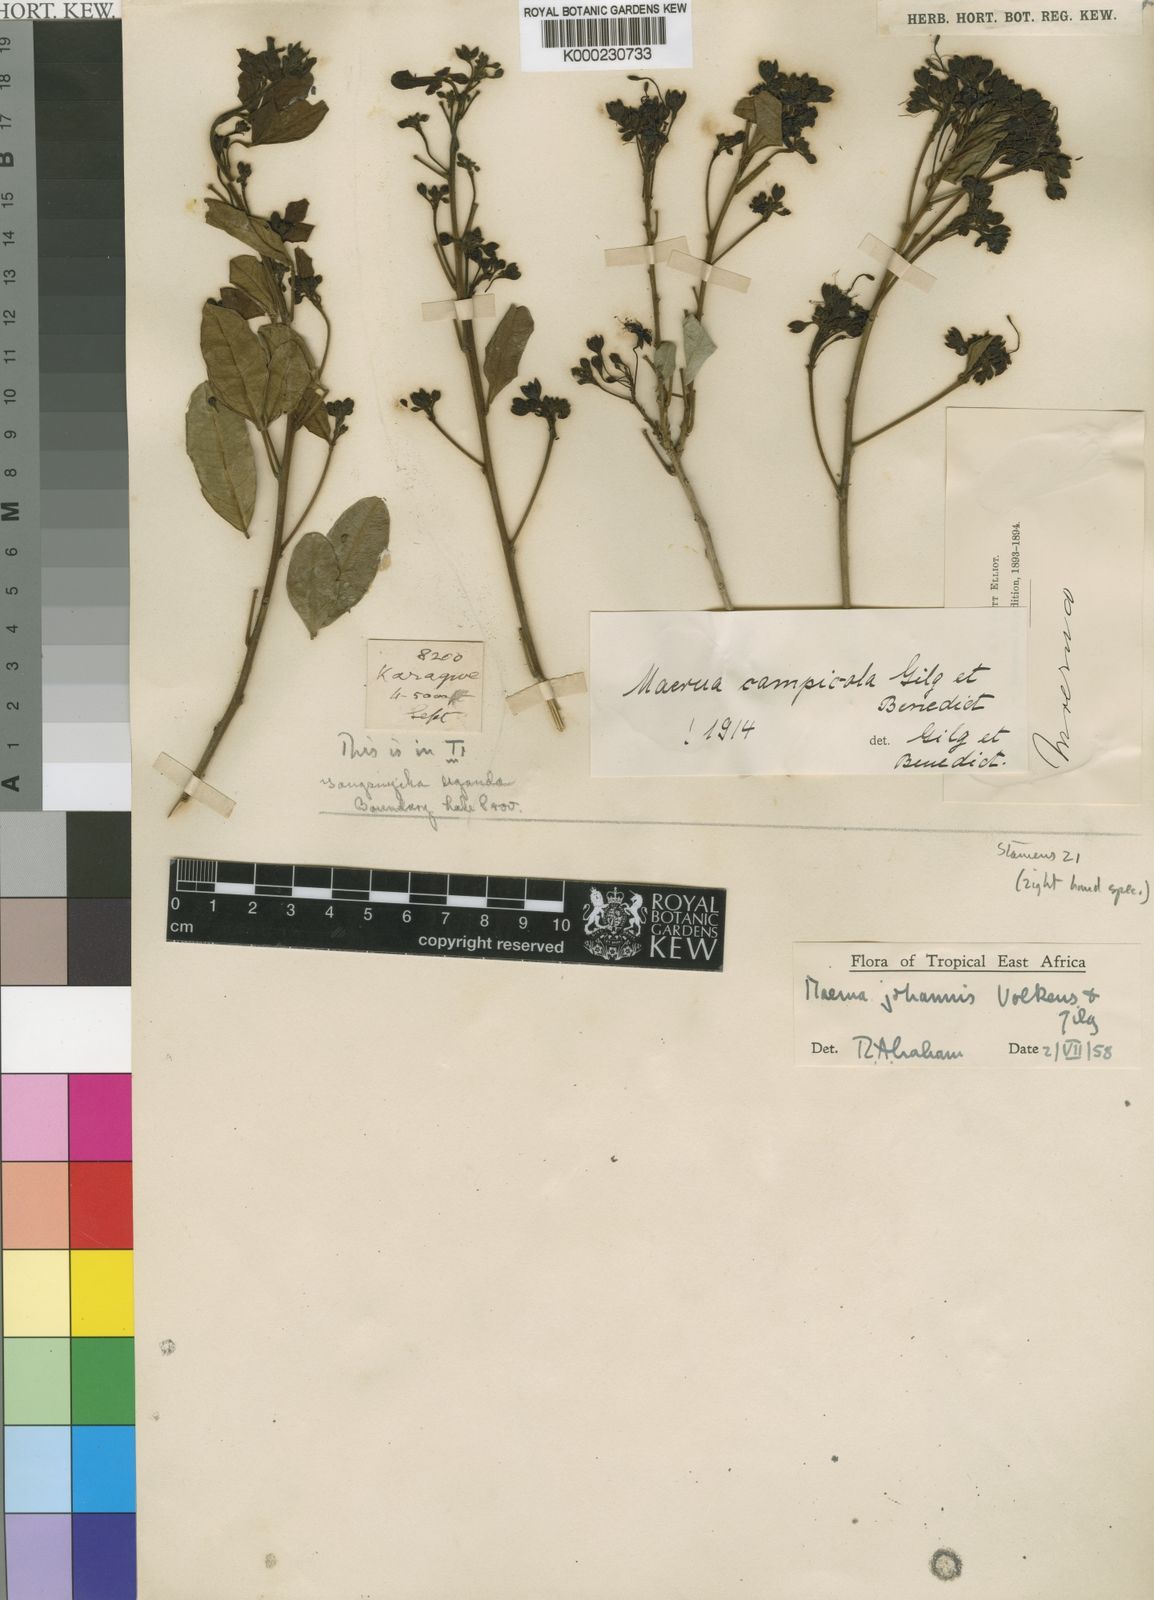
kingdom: Plantae
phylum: Tracheophyta
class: Magnoliopsida
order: Brassicales
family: Capparaceae
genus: Maerua
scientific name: Maerua
